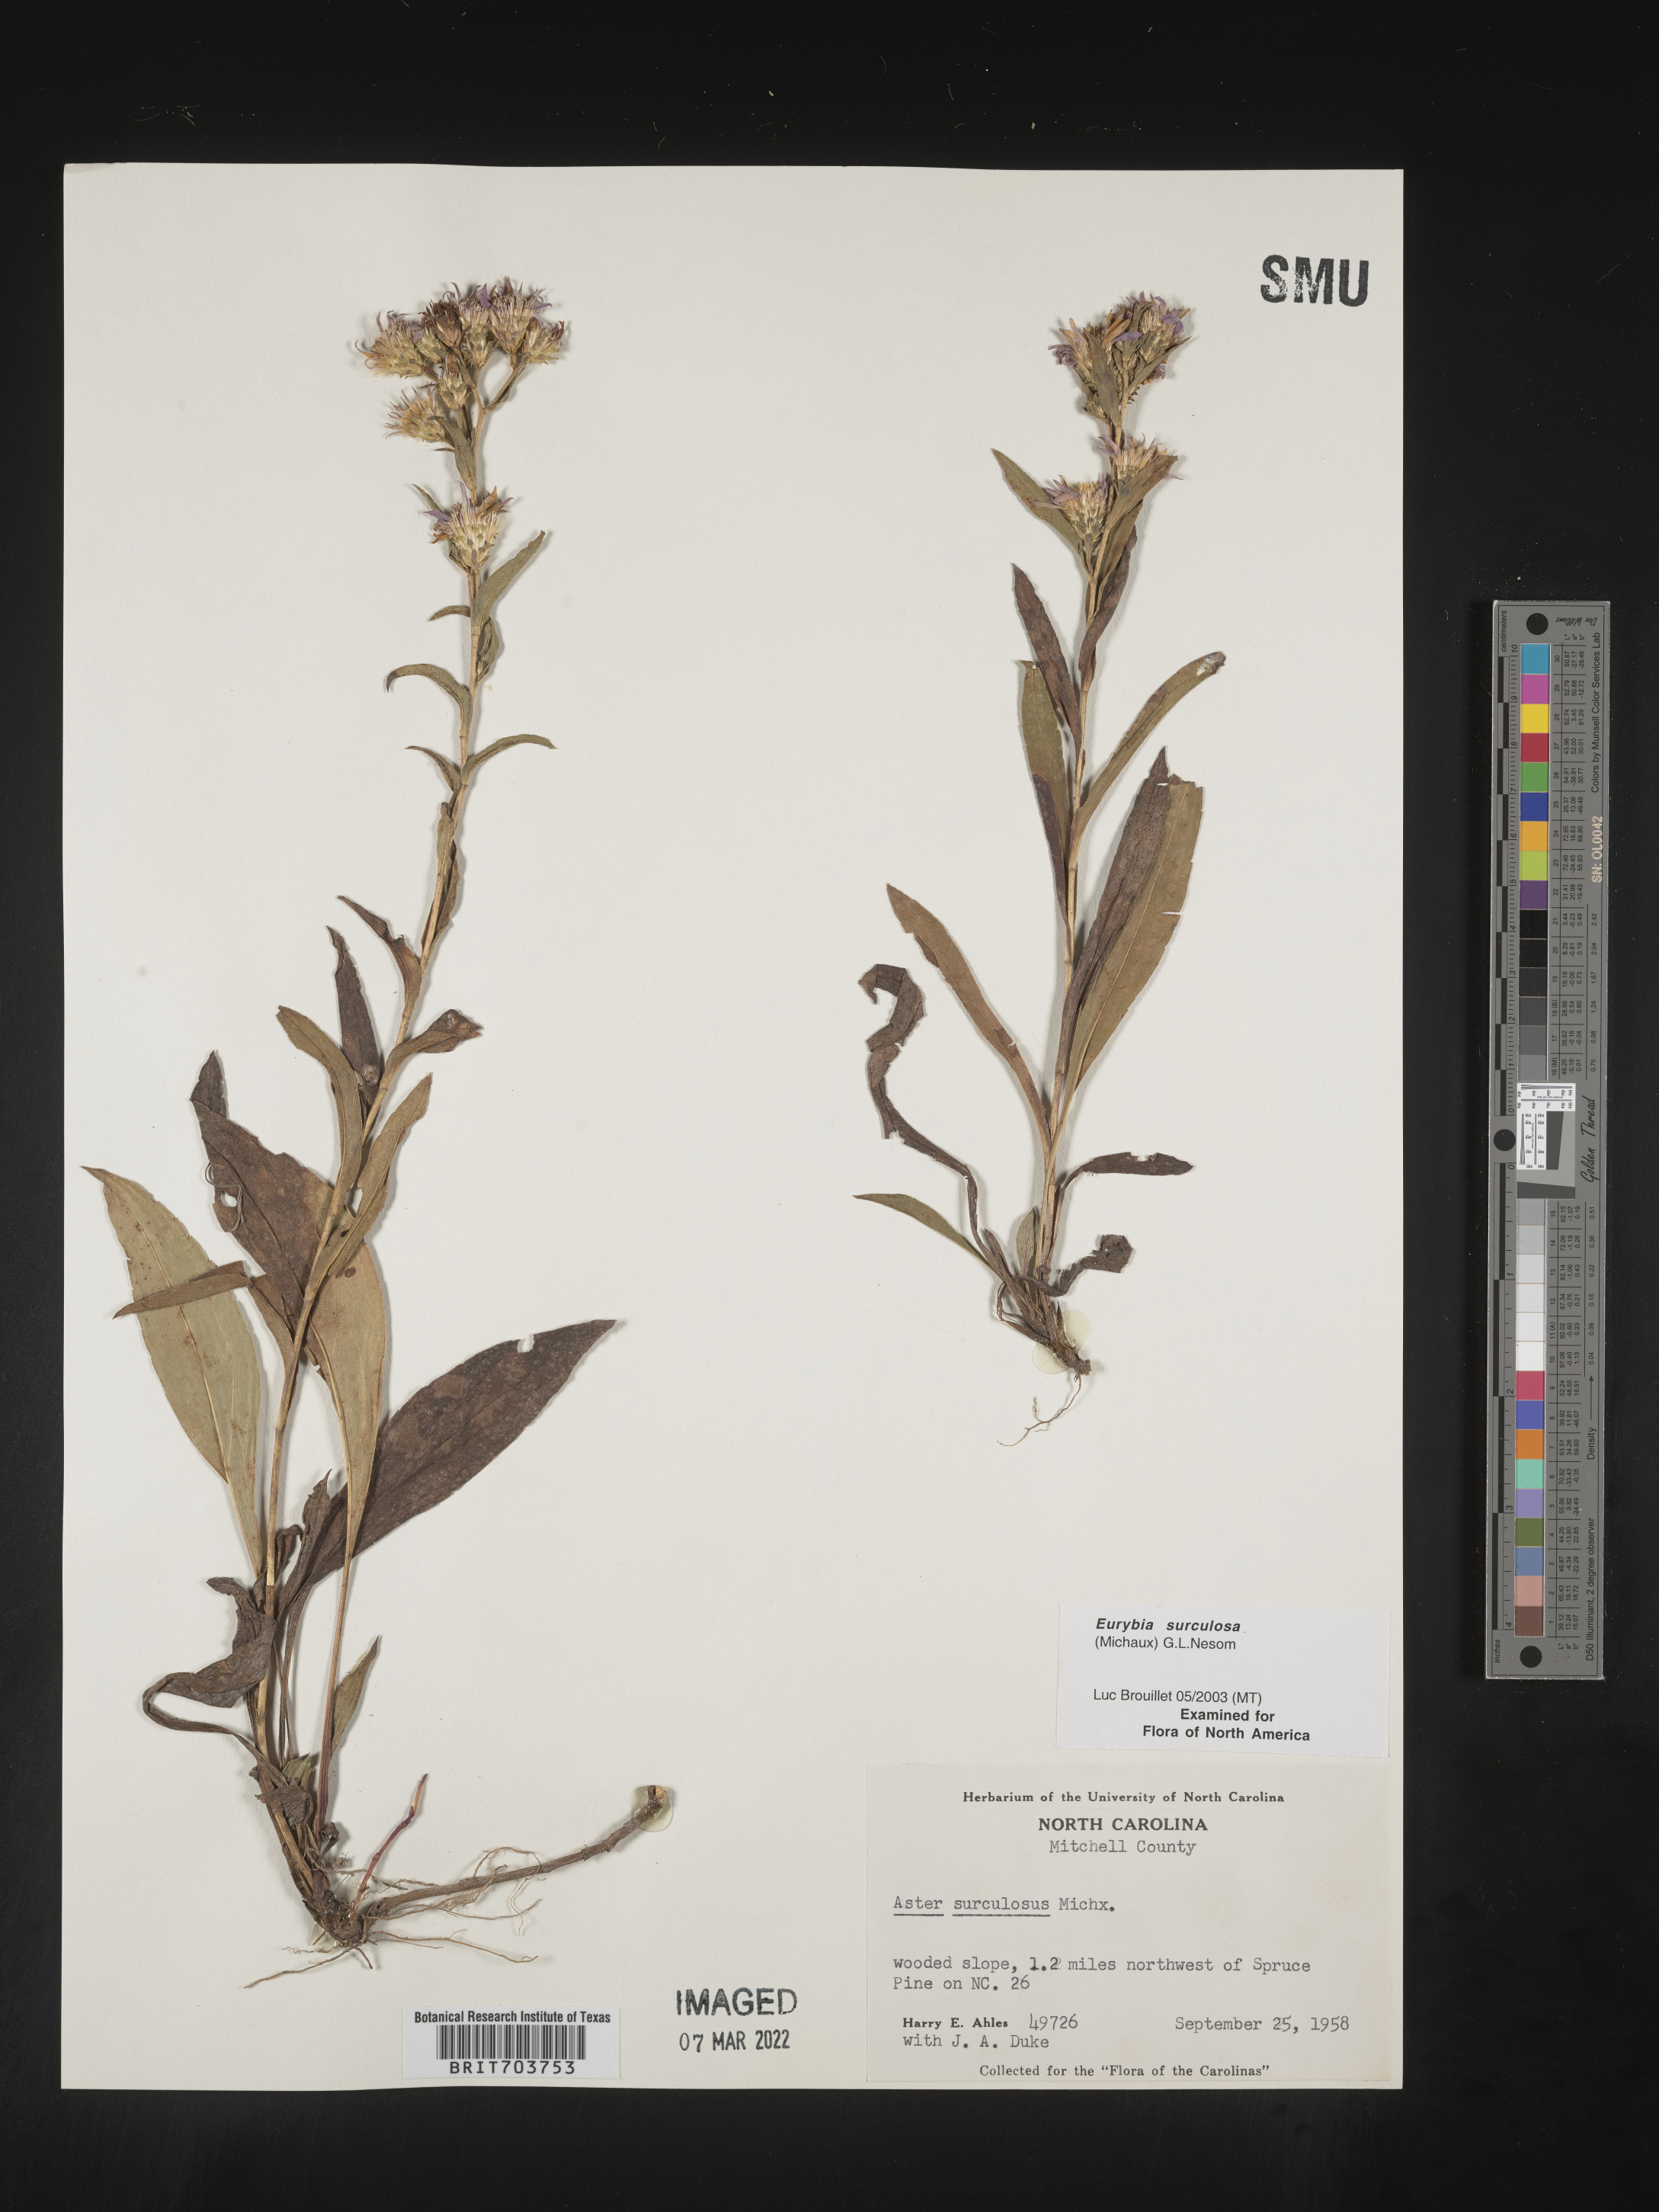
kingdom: Plantae
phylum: Tracheophyta
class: Magnoliopsida
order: Asterales
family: Asteraceae
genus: Eurybia
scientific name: Eurybia surculosa
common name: Creeping aster
